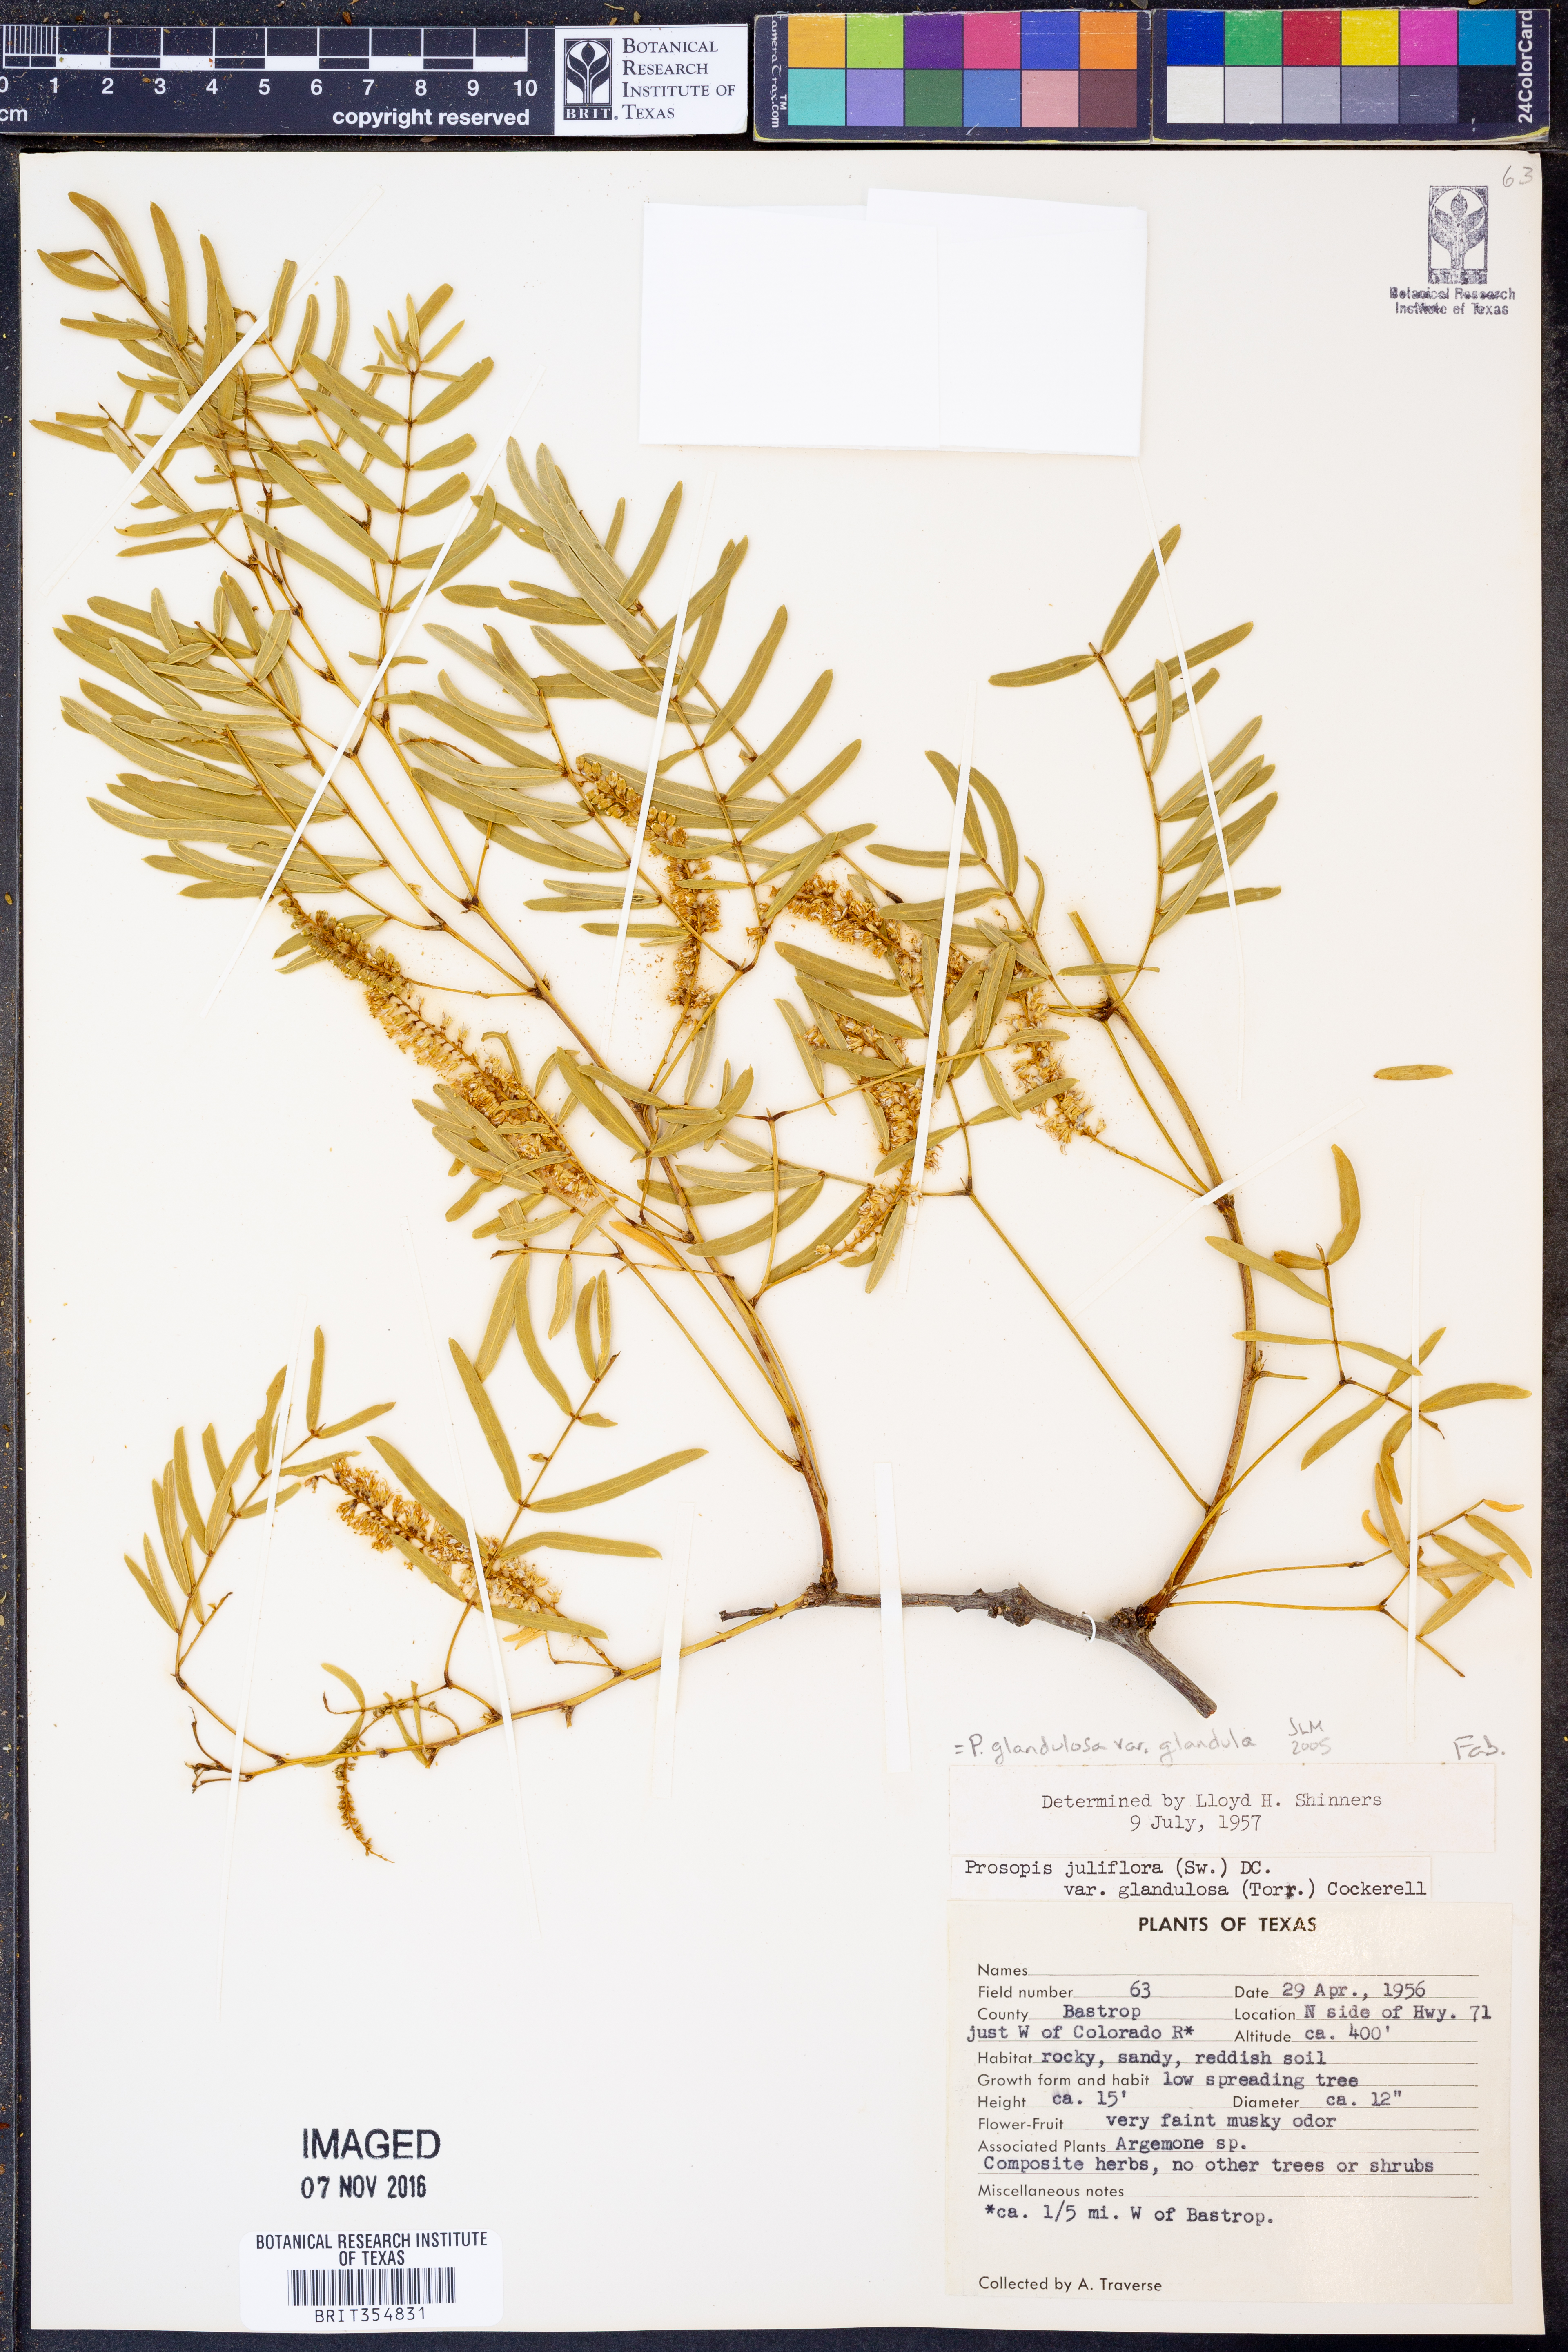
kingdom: Plantae
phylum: Tracheophyta
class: Magnoliopsida
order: Fabales
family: Fabaceae
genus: Prosopis
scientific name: Prosopis glandulosa
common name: Honey mesquite
